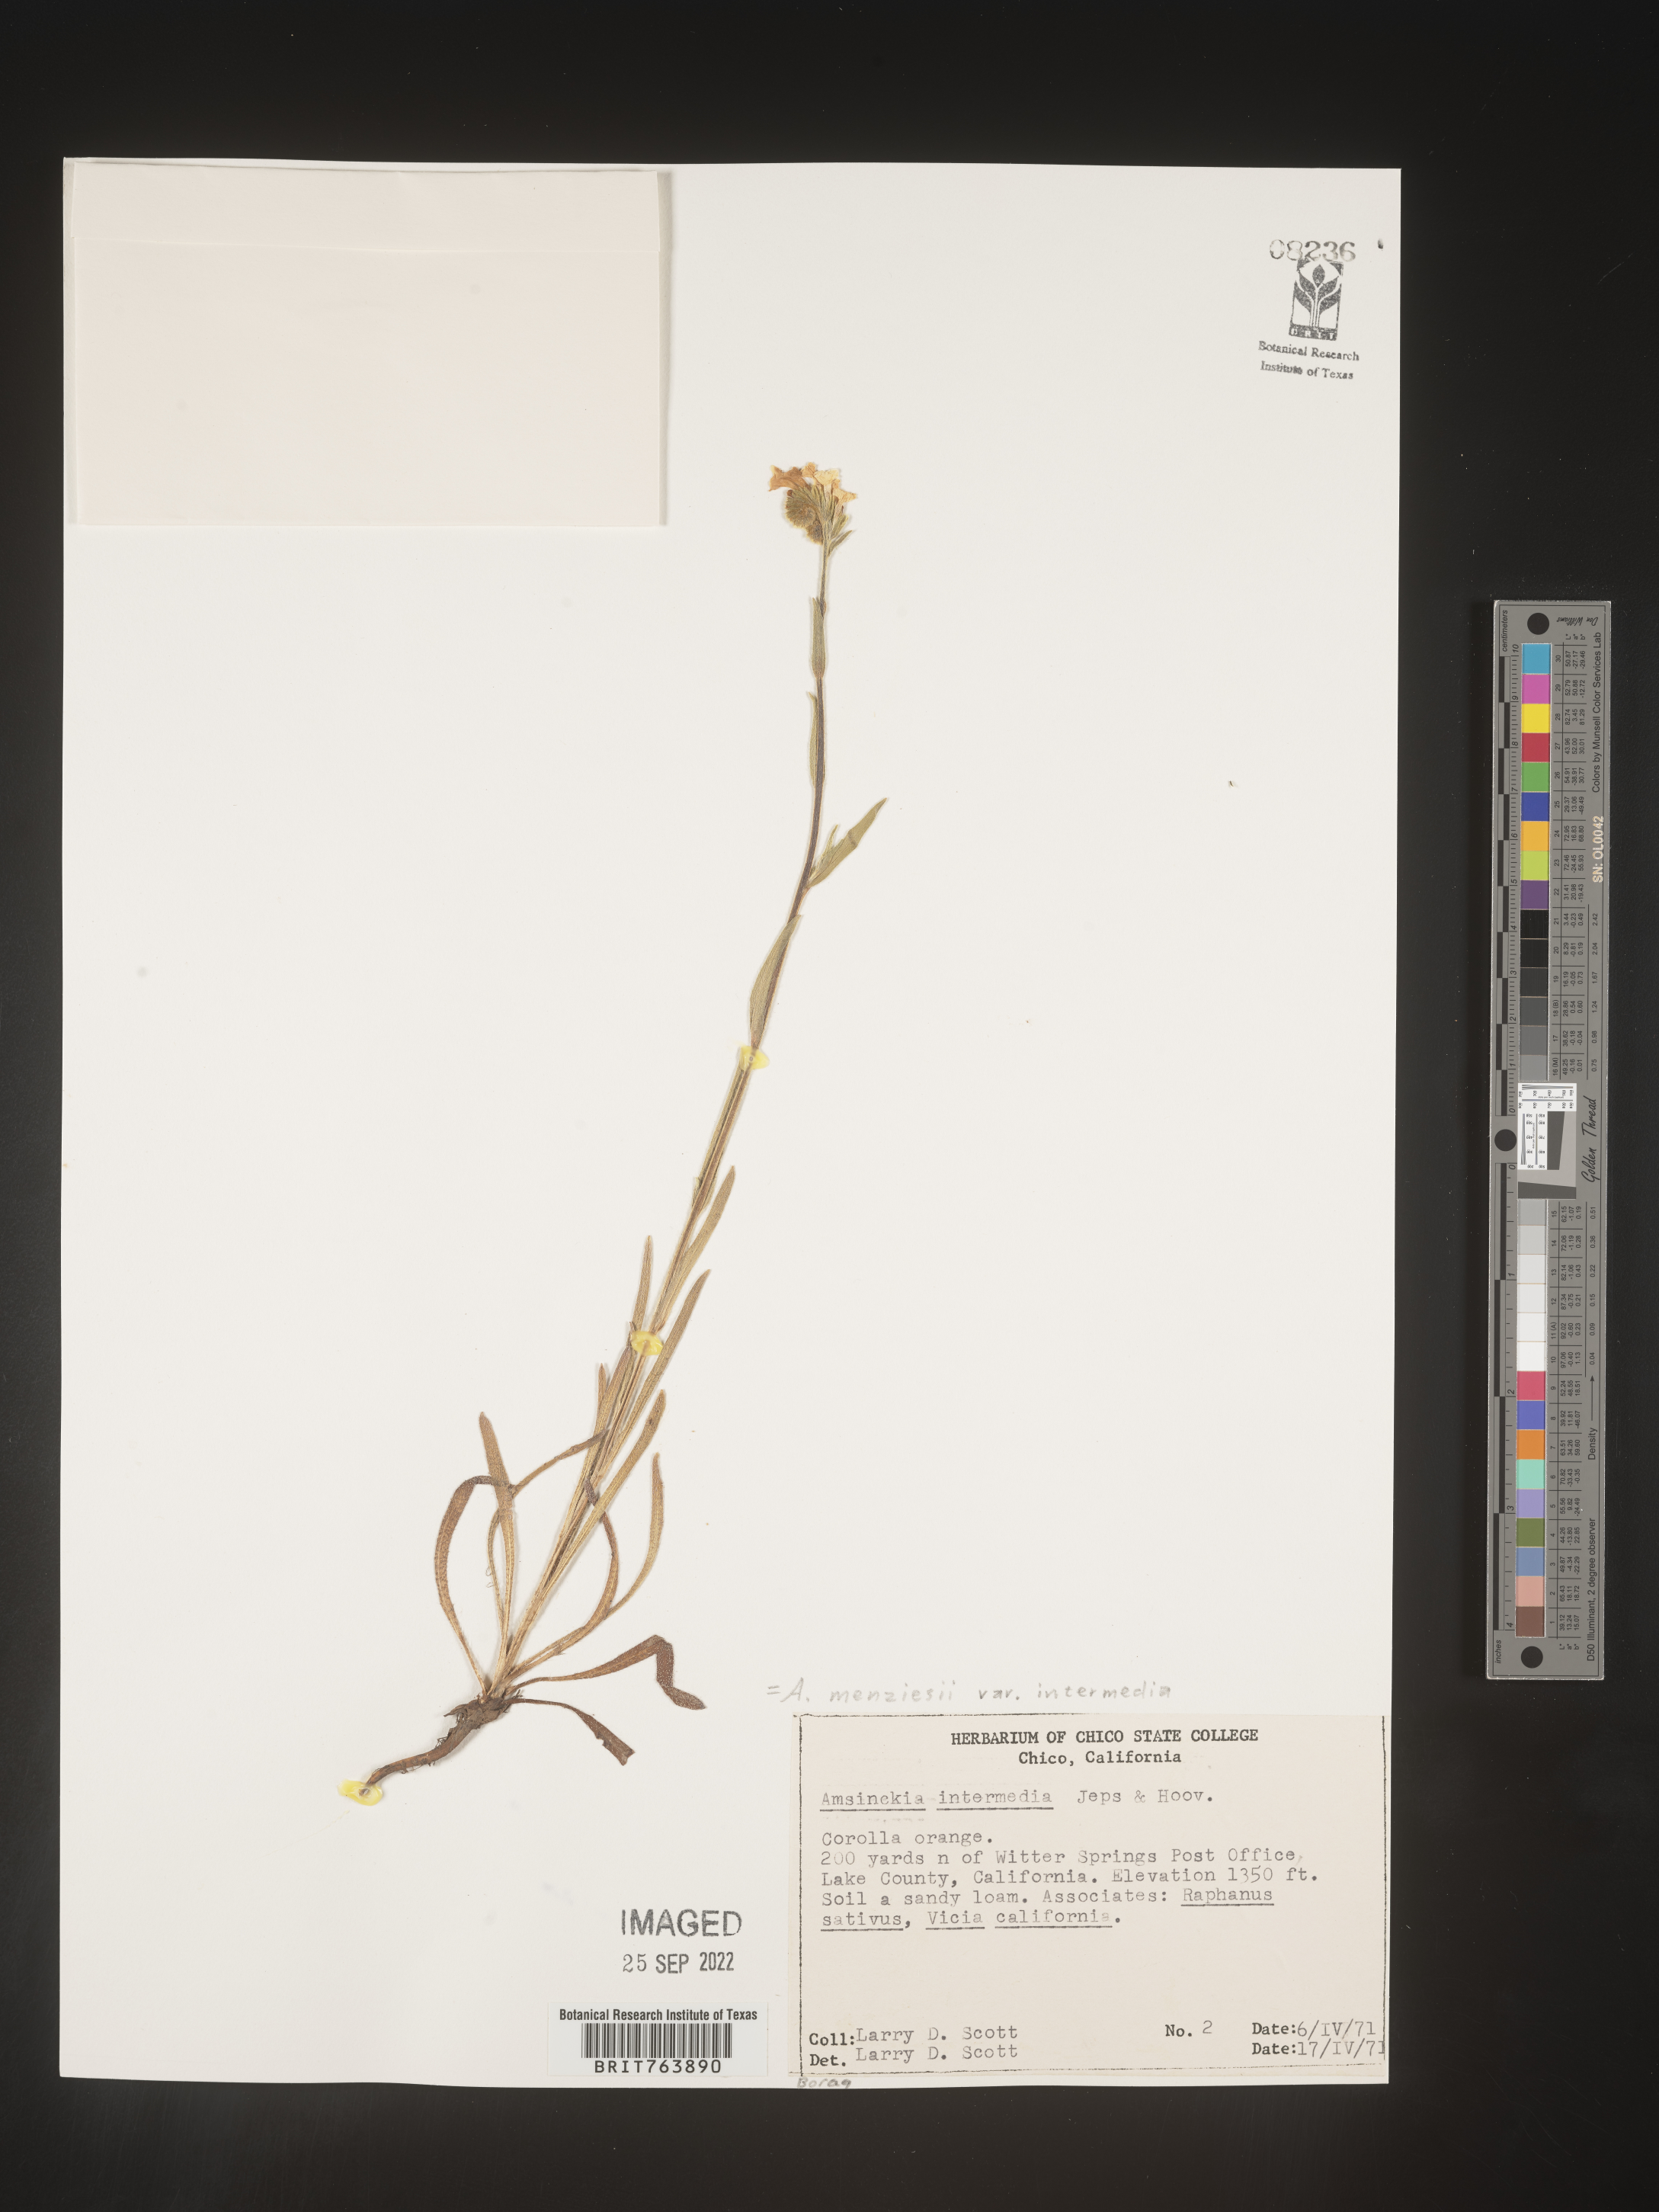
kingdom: Plantae
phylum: Tracheophyta
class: Magnoliopsida
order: Boraginales
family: Boraginaceae
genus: Amsinckia
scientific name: Amsinckia menziesii
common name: Menzies' fiddleneck
